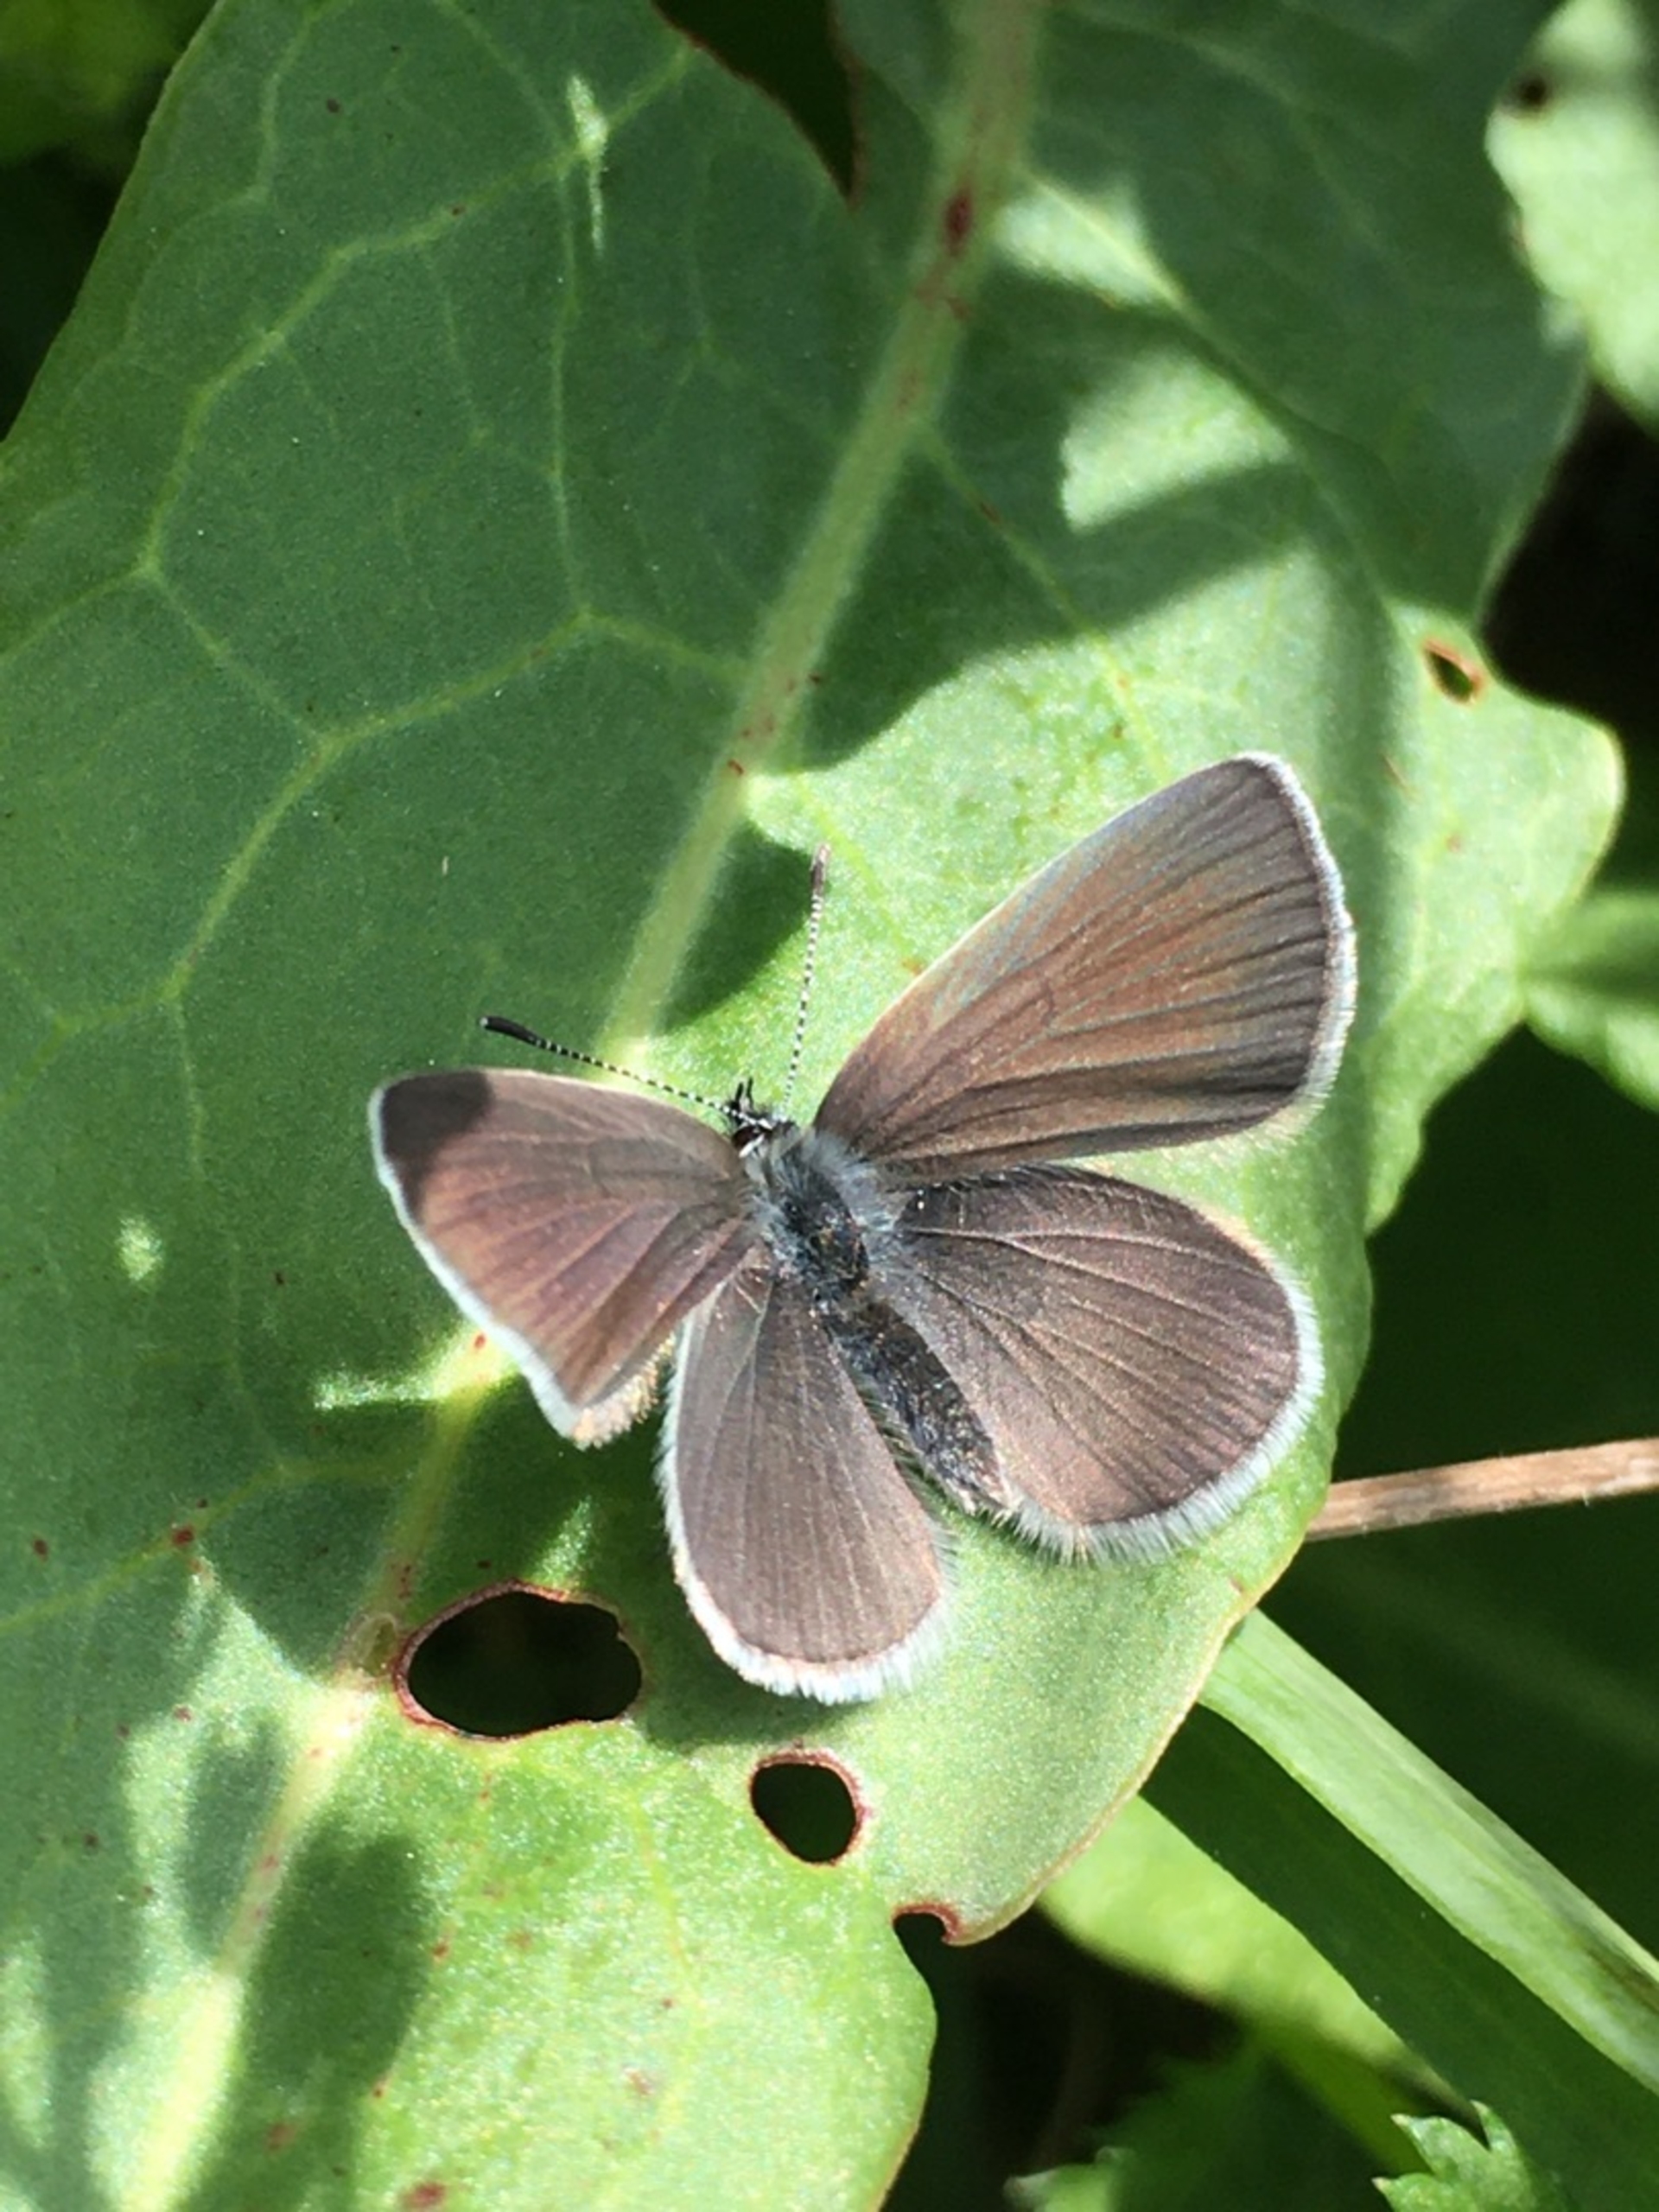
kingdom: Animalia
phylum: Arthropoda
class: Insecta
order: Lepidoptera
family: Lycaenidae
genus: Cupido
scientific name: Cupido minimus
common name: Dværgblåfugl
